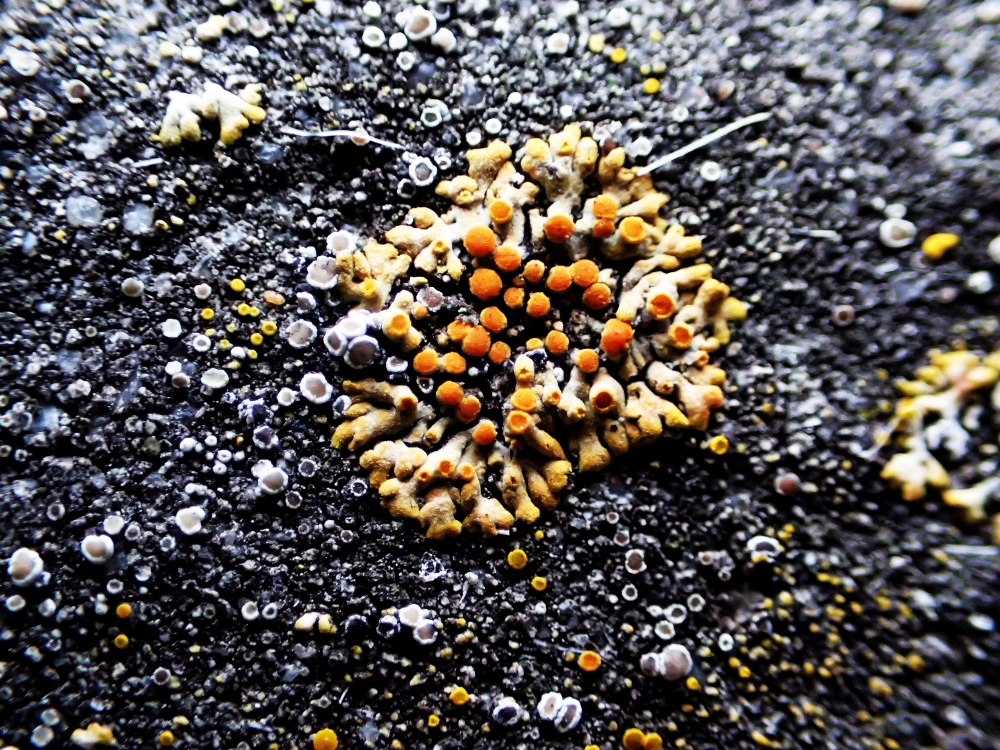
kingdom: Fungi
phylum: Ascomycota
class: Lecanoromycetes
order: Teloschistales
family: Teloschistaceae
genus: Calogaya
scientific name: Calogaya
